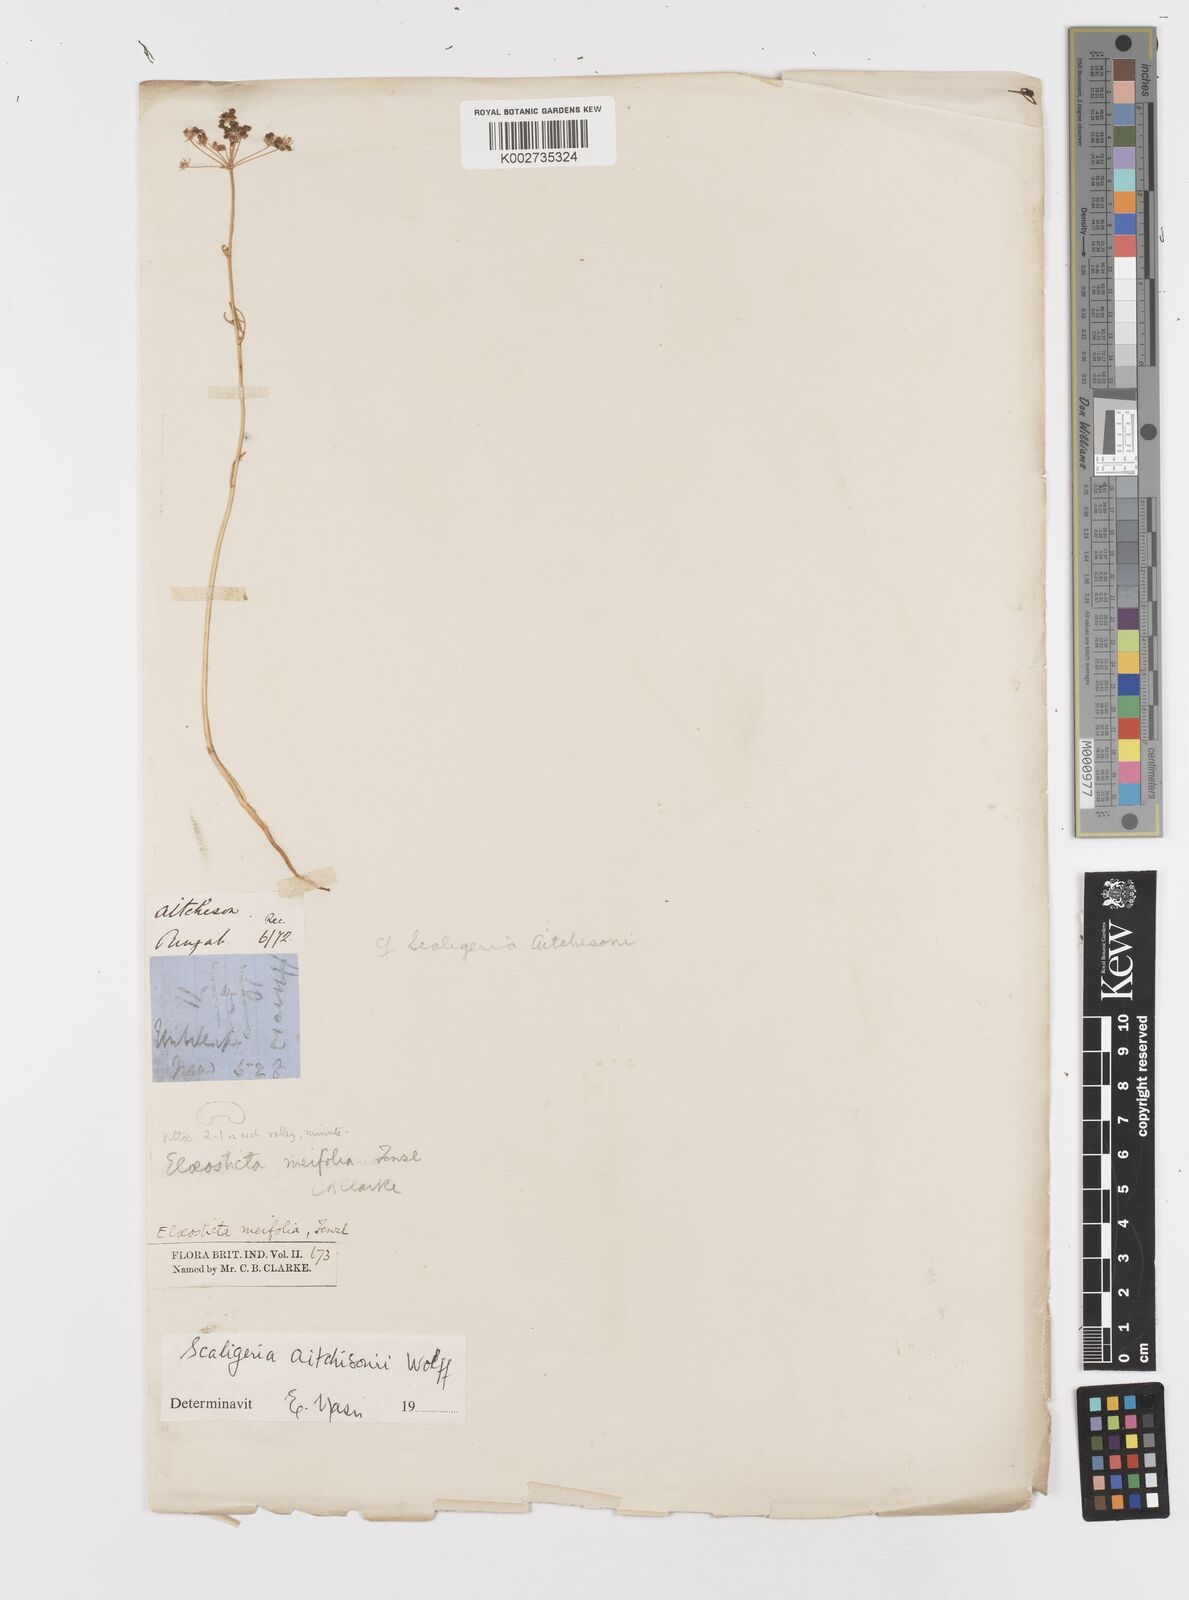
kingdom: Plantae
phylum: Tracheophyta
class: Magnoliopsida
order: Apiales
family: Apiaceae
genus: Trachyspermum
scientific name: Trachyspermum
